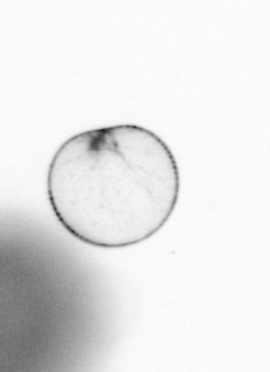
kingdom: Chromista
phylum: Myzozoa
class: Dinophyceae
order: Noctilucales
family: Noctilucaceae
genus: Noctiluca
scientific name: Noctiluca scintillans
